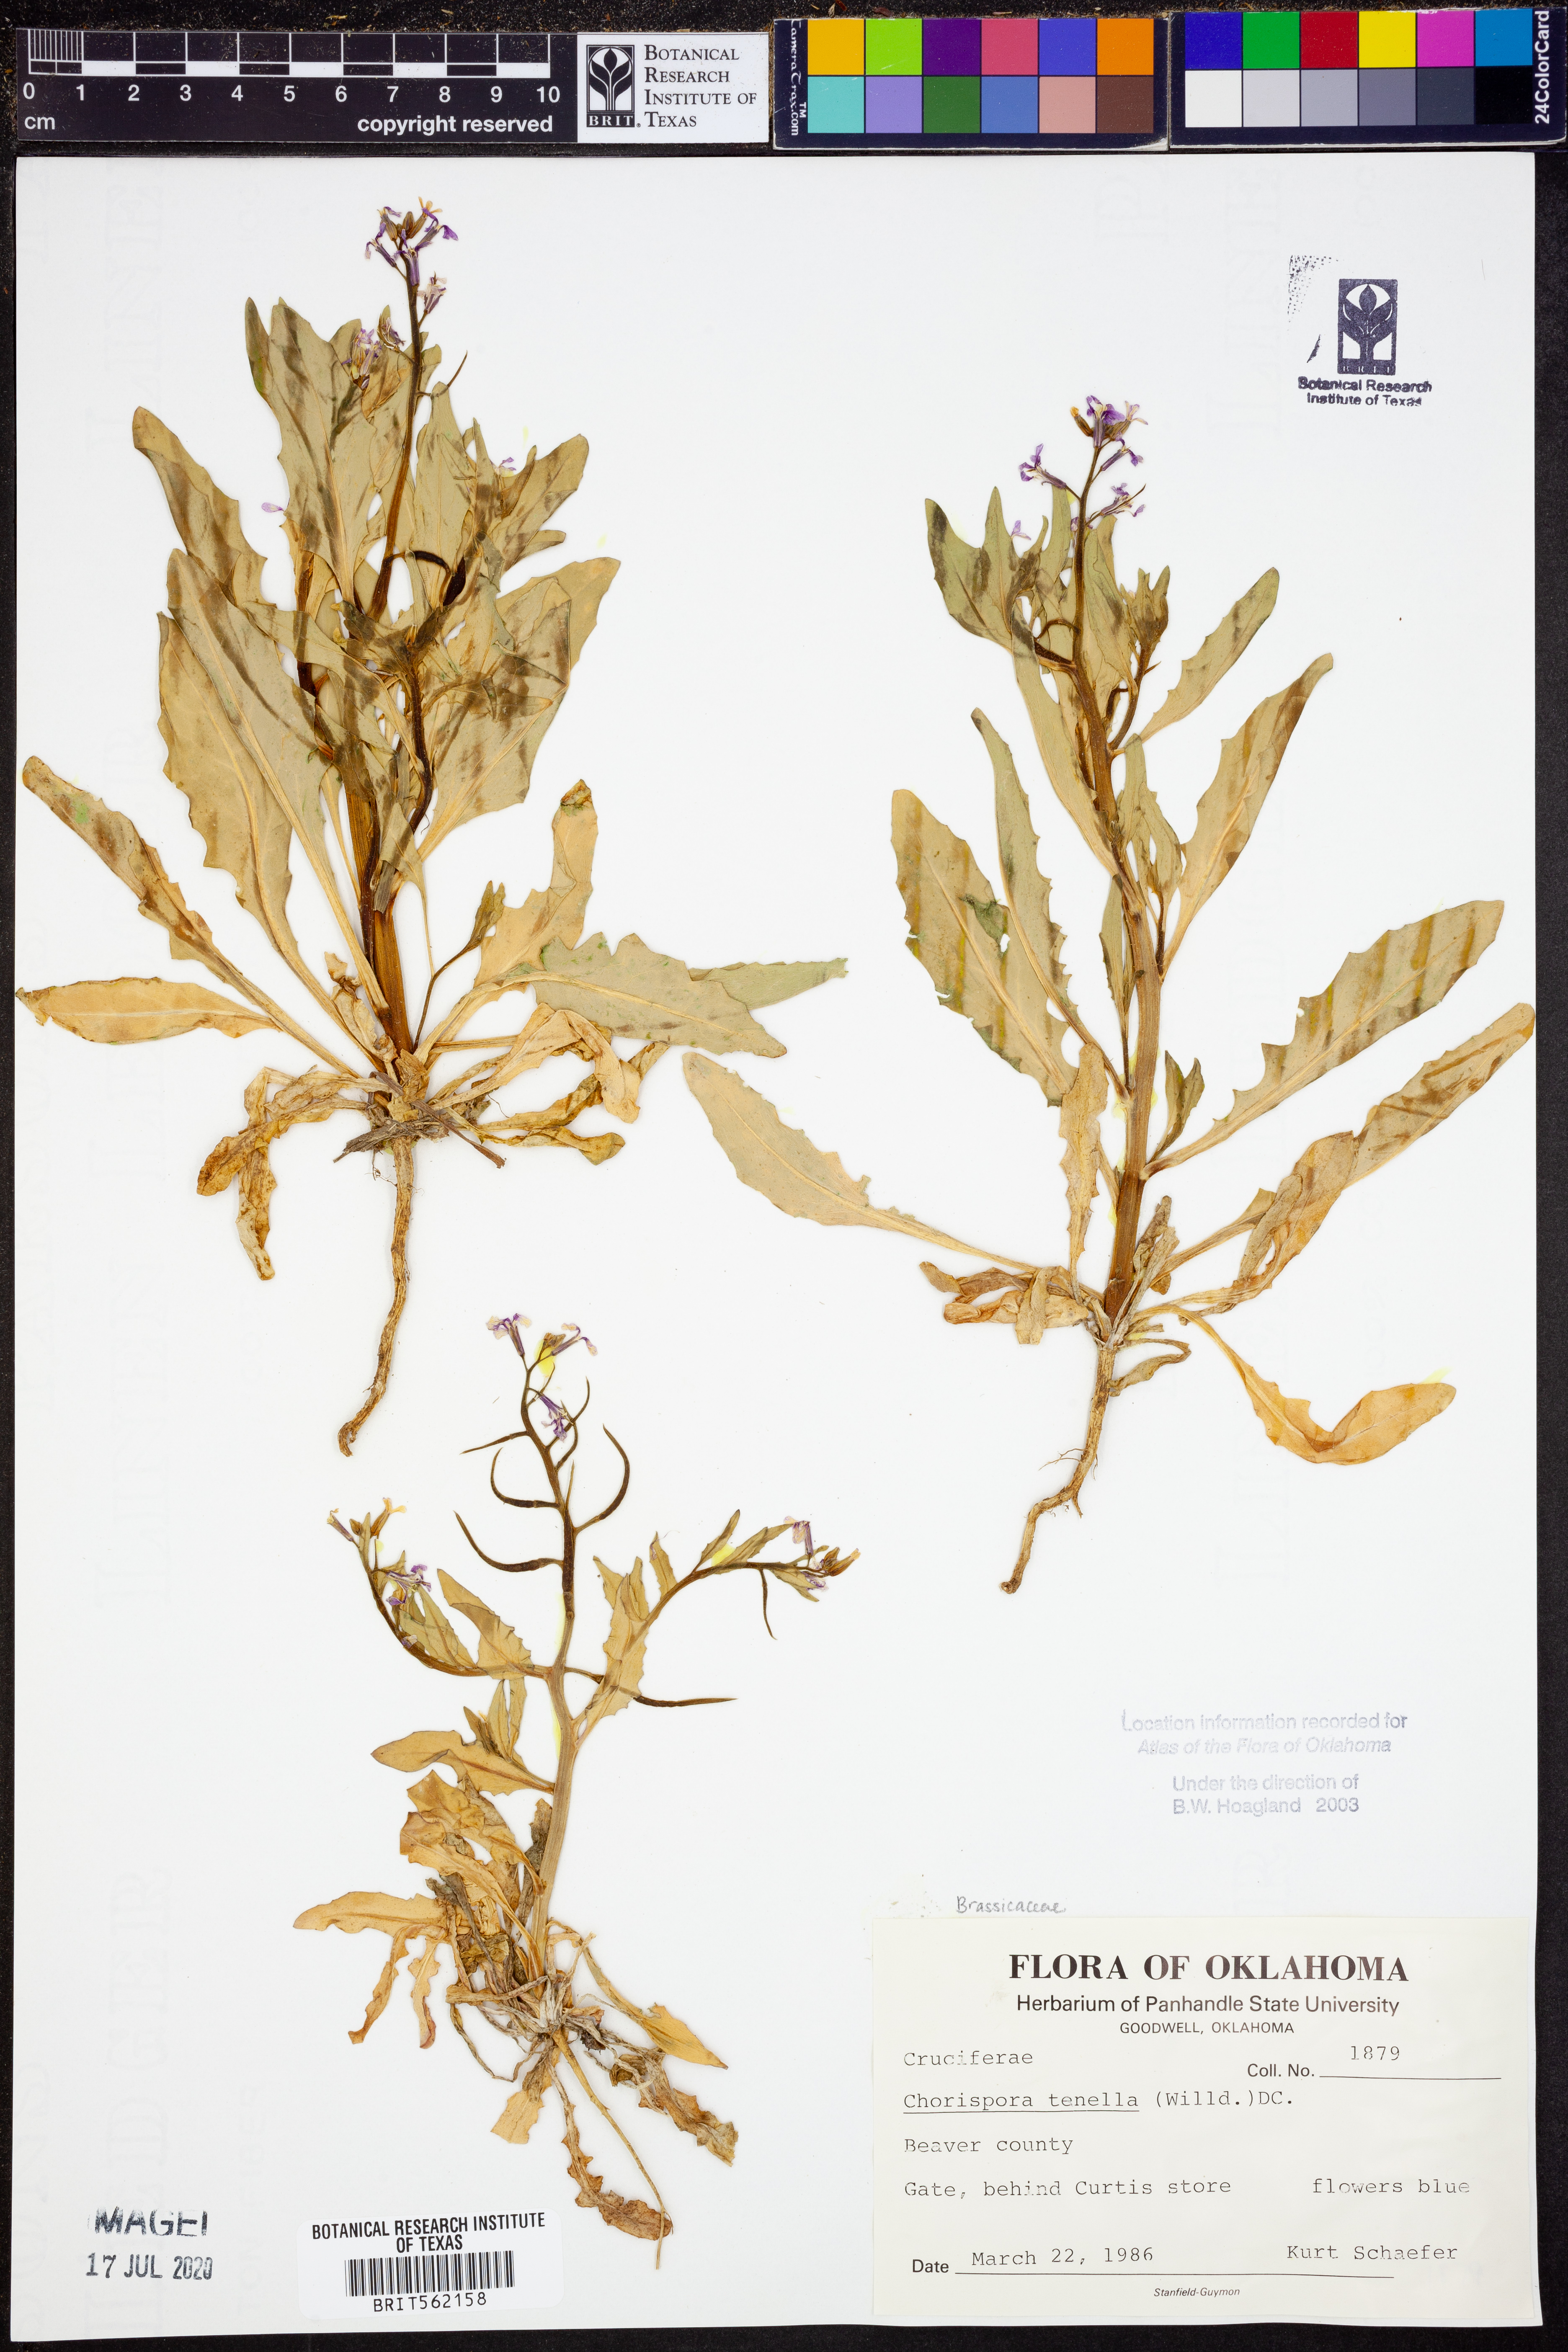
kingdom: Plantae
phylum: Tracheophyta
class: Magnoliopsida
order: Brassicales
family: Brassicaceae
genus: Chorispora
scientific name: Chorispora tenella
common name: Crossflower
